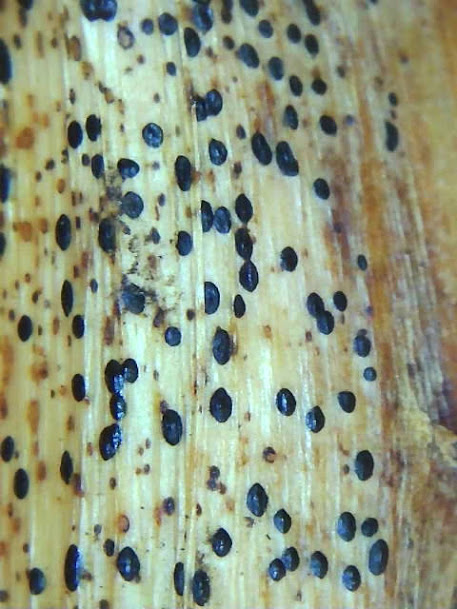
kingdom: Fungi
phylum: Ascomycota
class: Leotiomycetes
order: Rhytismatales
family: Rhytismataceae
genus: Lophodermium
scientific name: Lophodermium paeoniae
